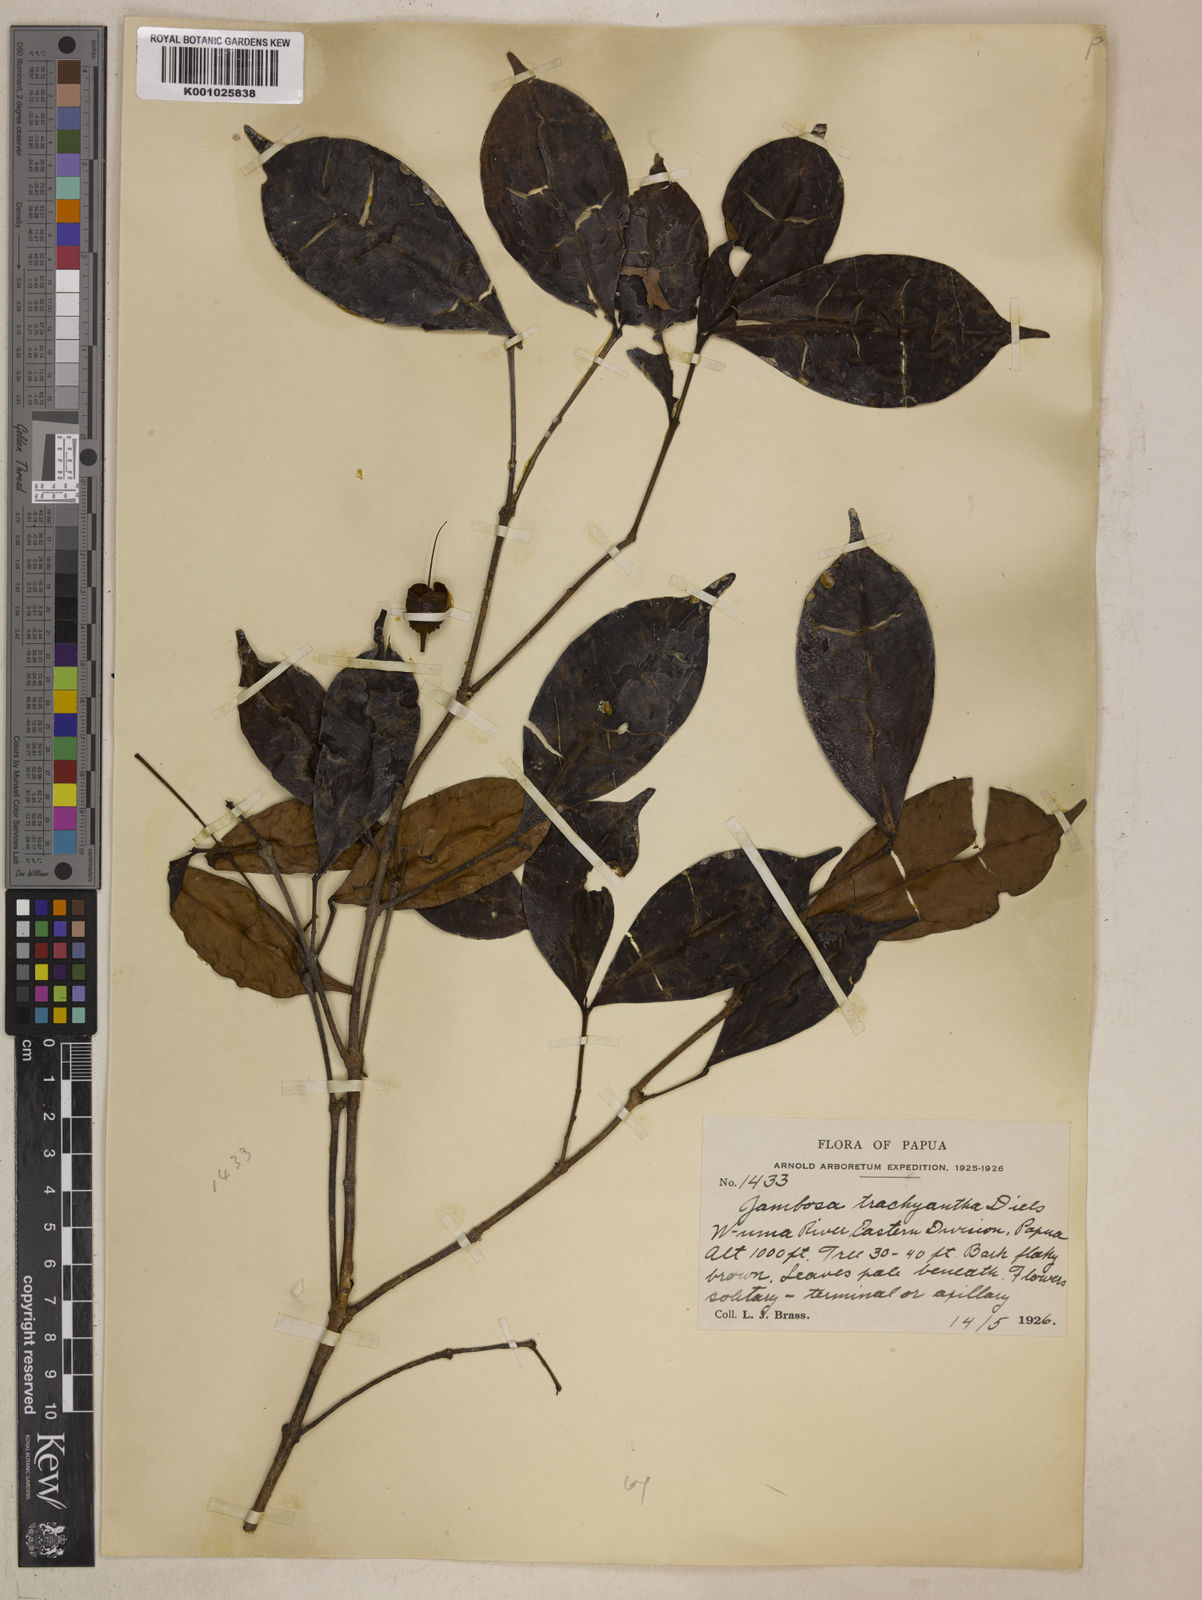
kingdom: Plantae
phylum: Tracheophyta
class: Magnoliopsida
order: Myrtales
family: Myrtaceae
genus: Syzygium
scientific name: Syzygium trachyanthum
